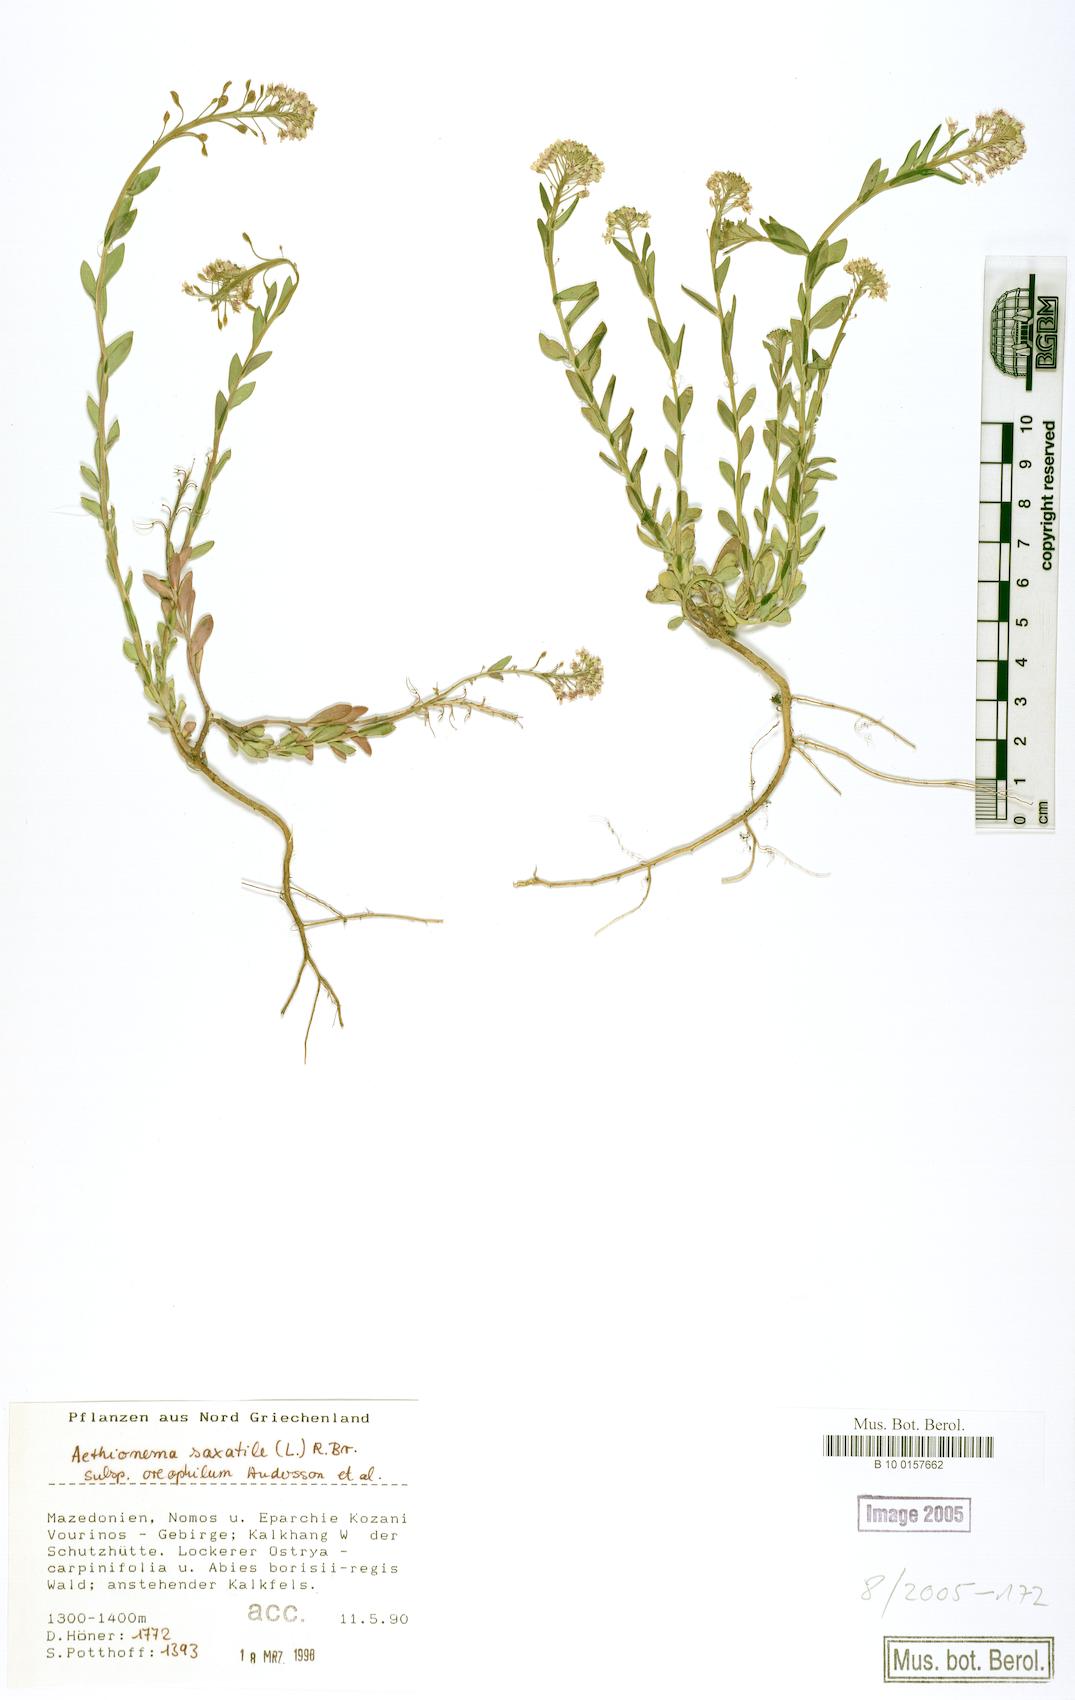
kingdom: Plantae
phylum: Tracheophyta
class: Magnoliopsida
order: Brassicales
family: Brassicaceae
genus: Aethionema
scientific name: Aethionema saxatile
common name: Burnt candytuft
